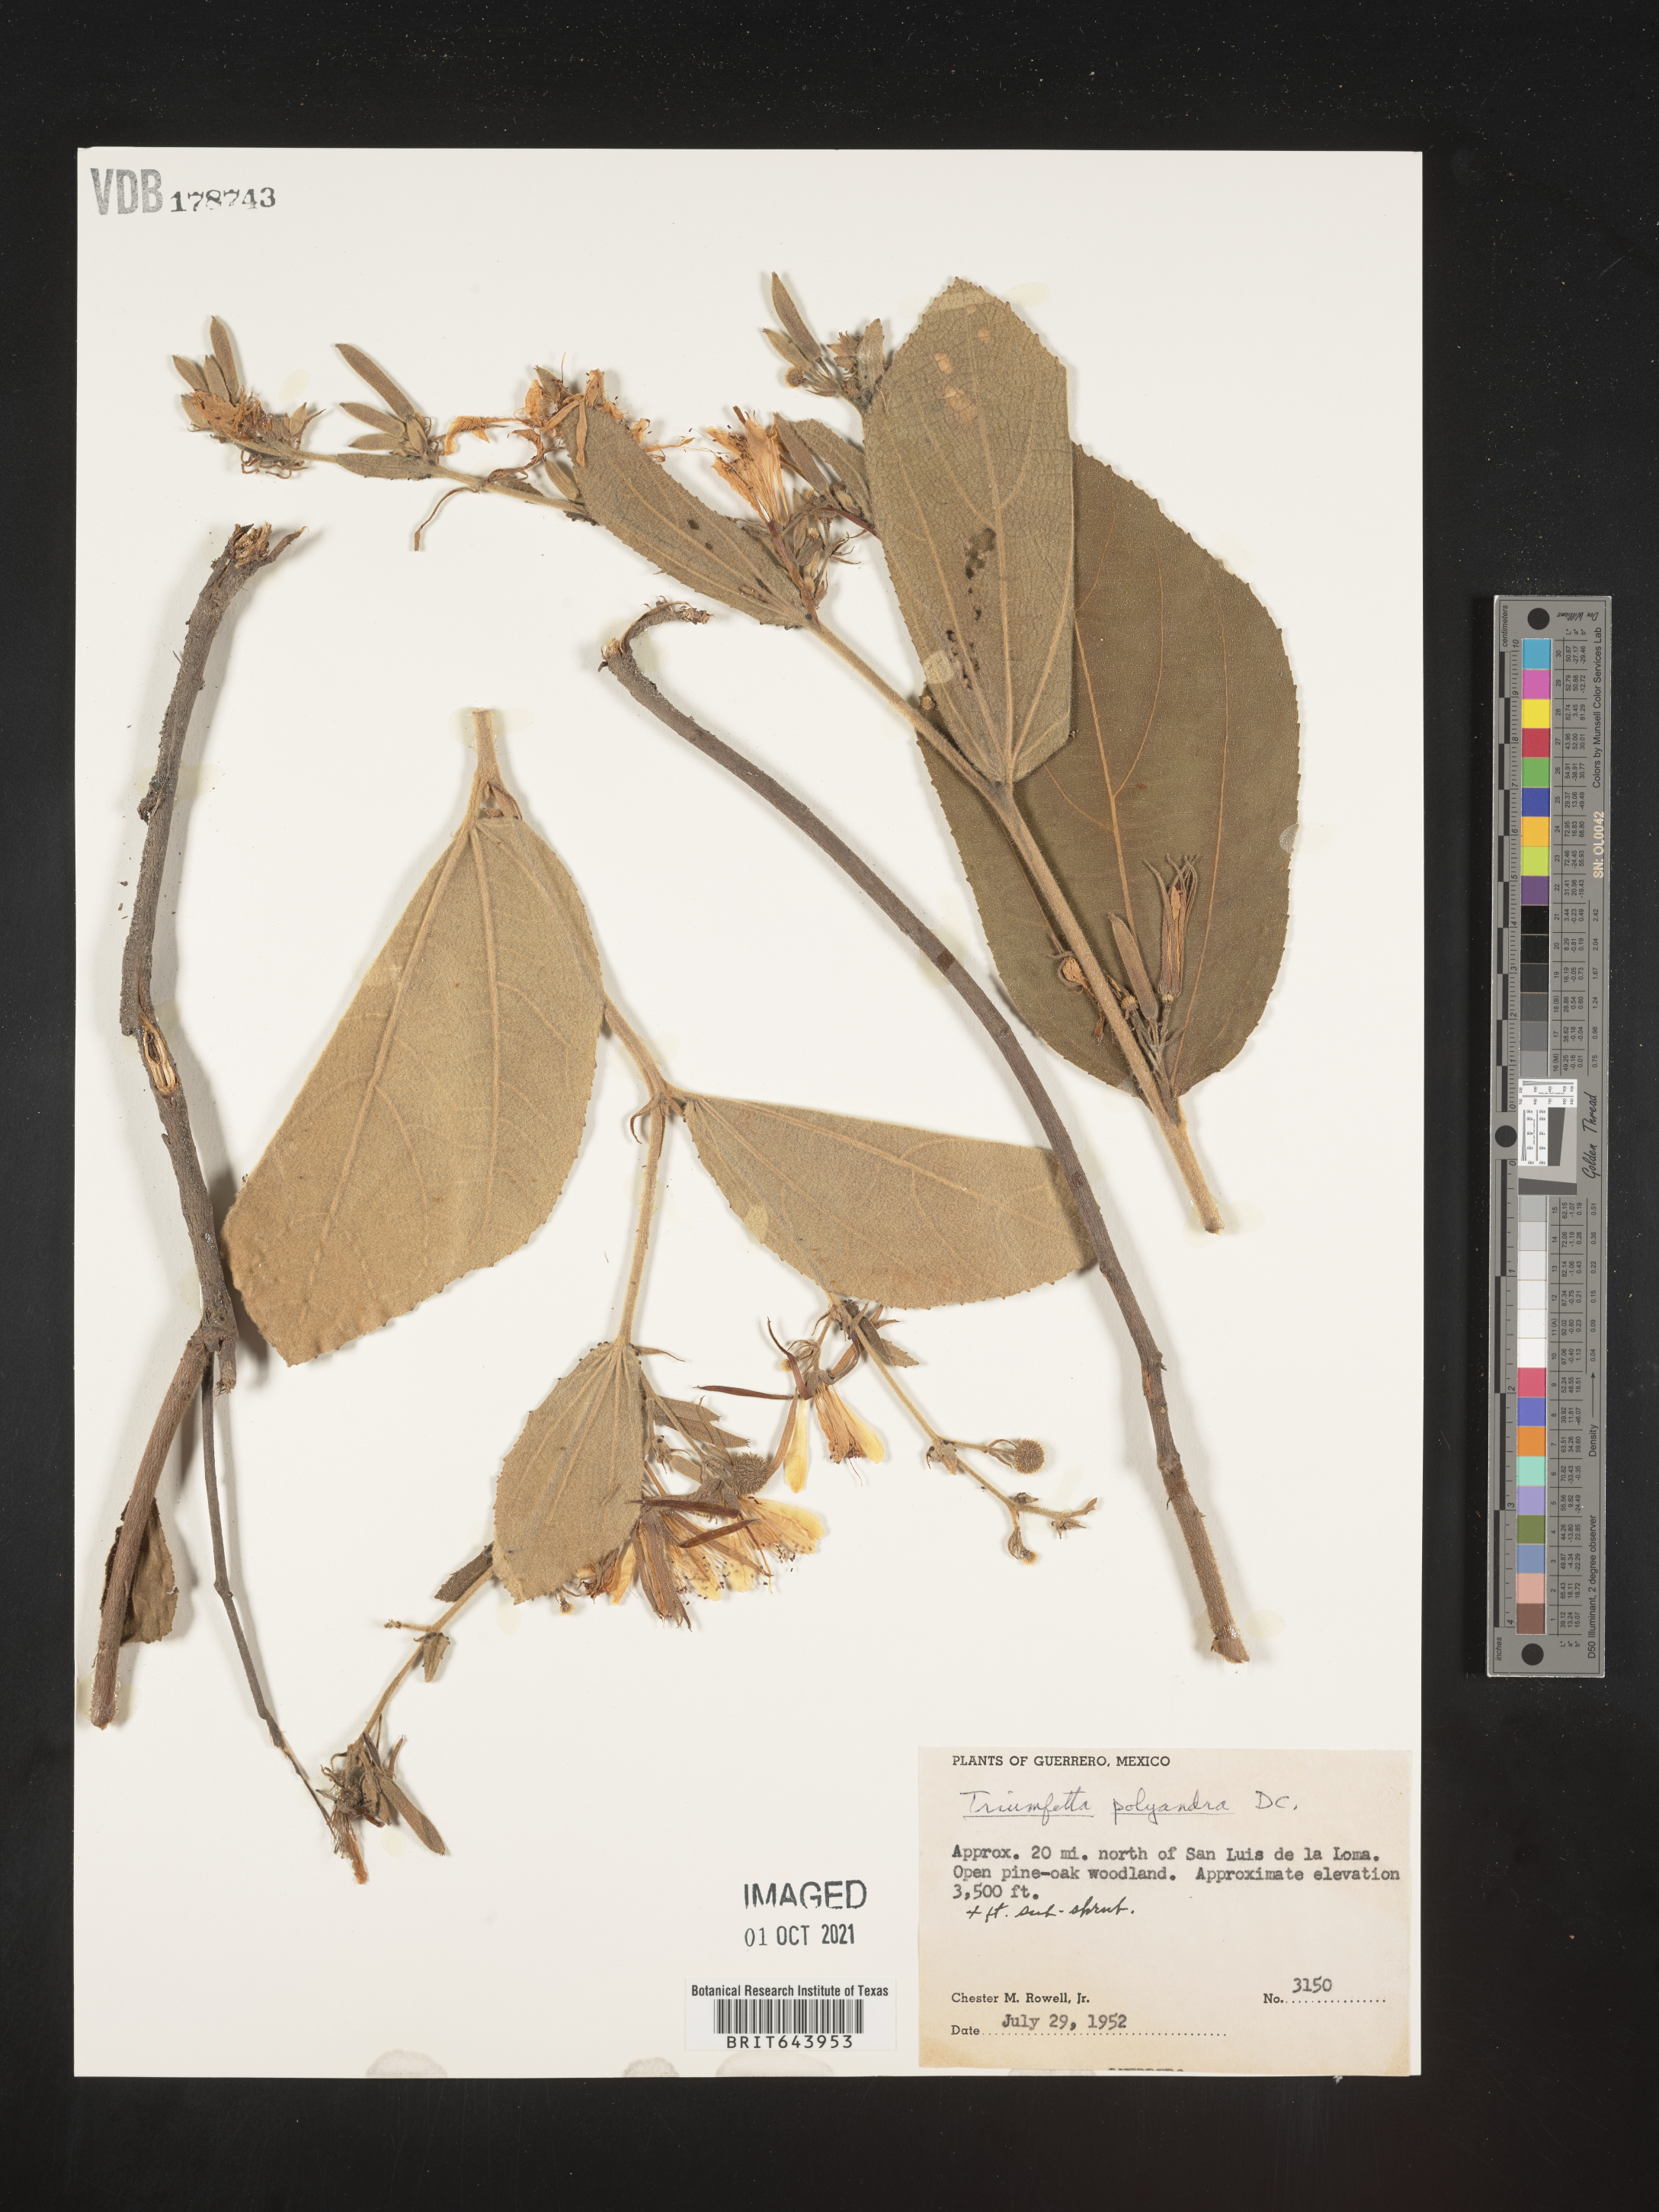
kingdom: Plantae
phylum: Tracheophyta
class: Magnoliopsida
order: Malvales
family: Malvaceae
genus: Triumfetta
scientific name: Triumfetta
